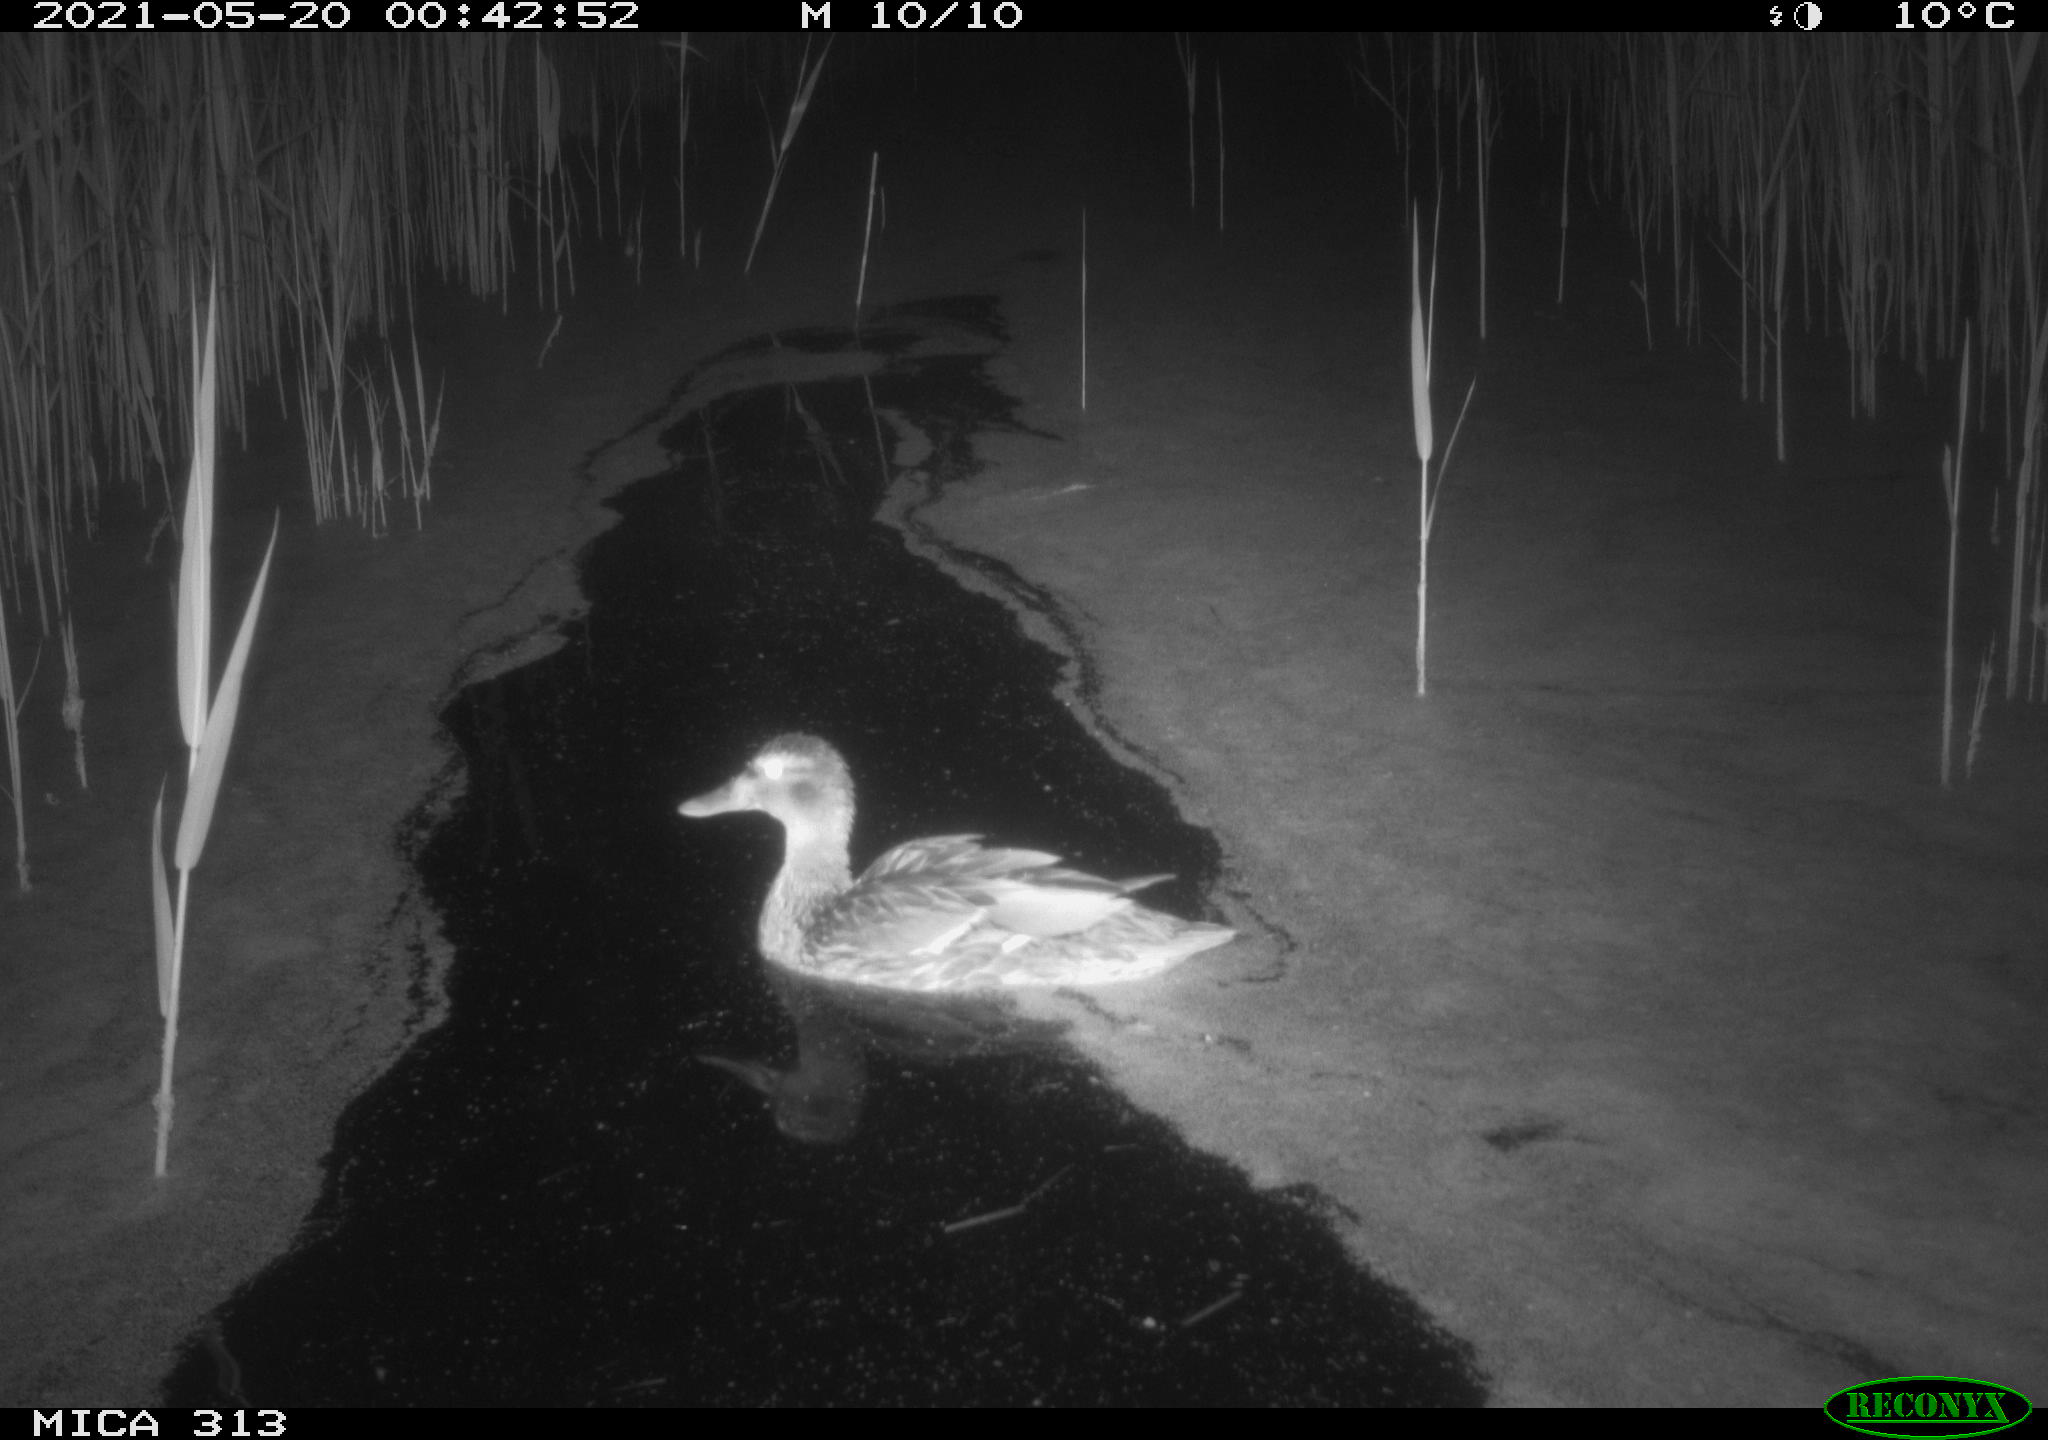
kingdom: Animalia
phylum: Chordata
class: Aves
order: Anseriformes
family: Anatidae
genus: Anas
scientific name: Anas platyrhynchos
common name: Mallard
